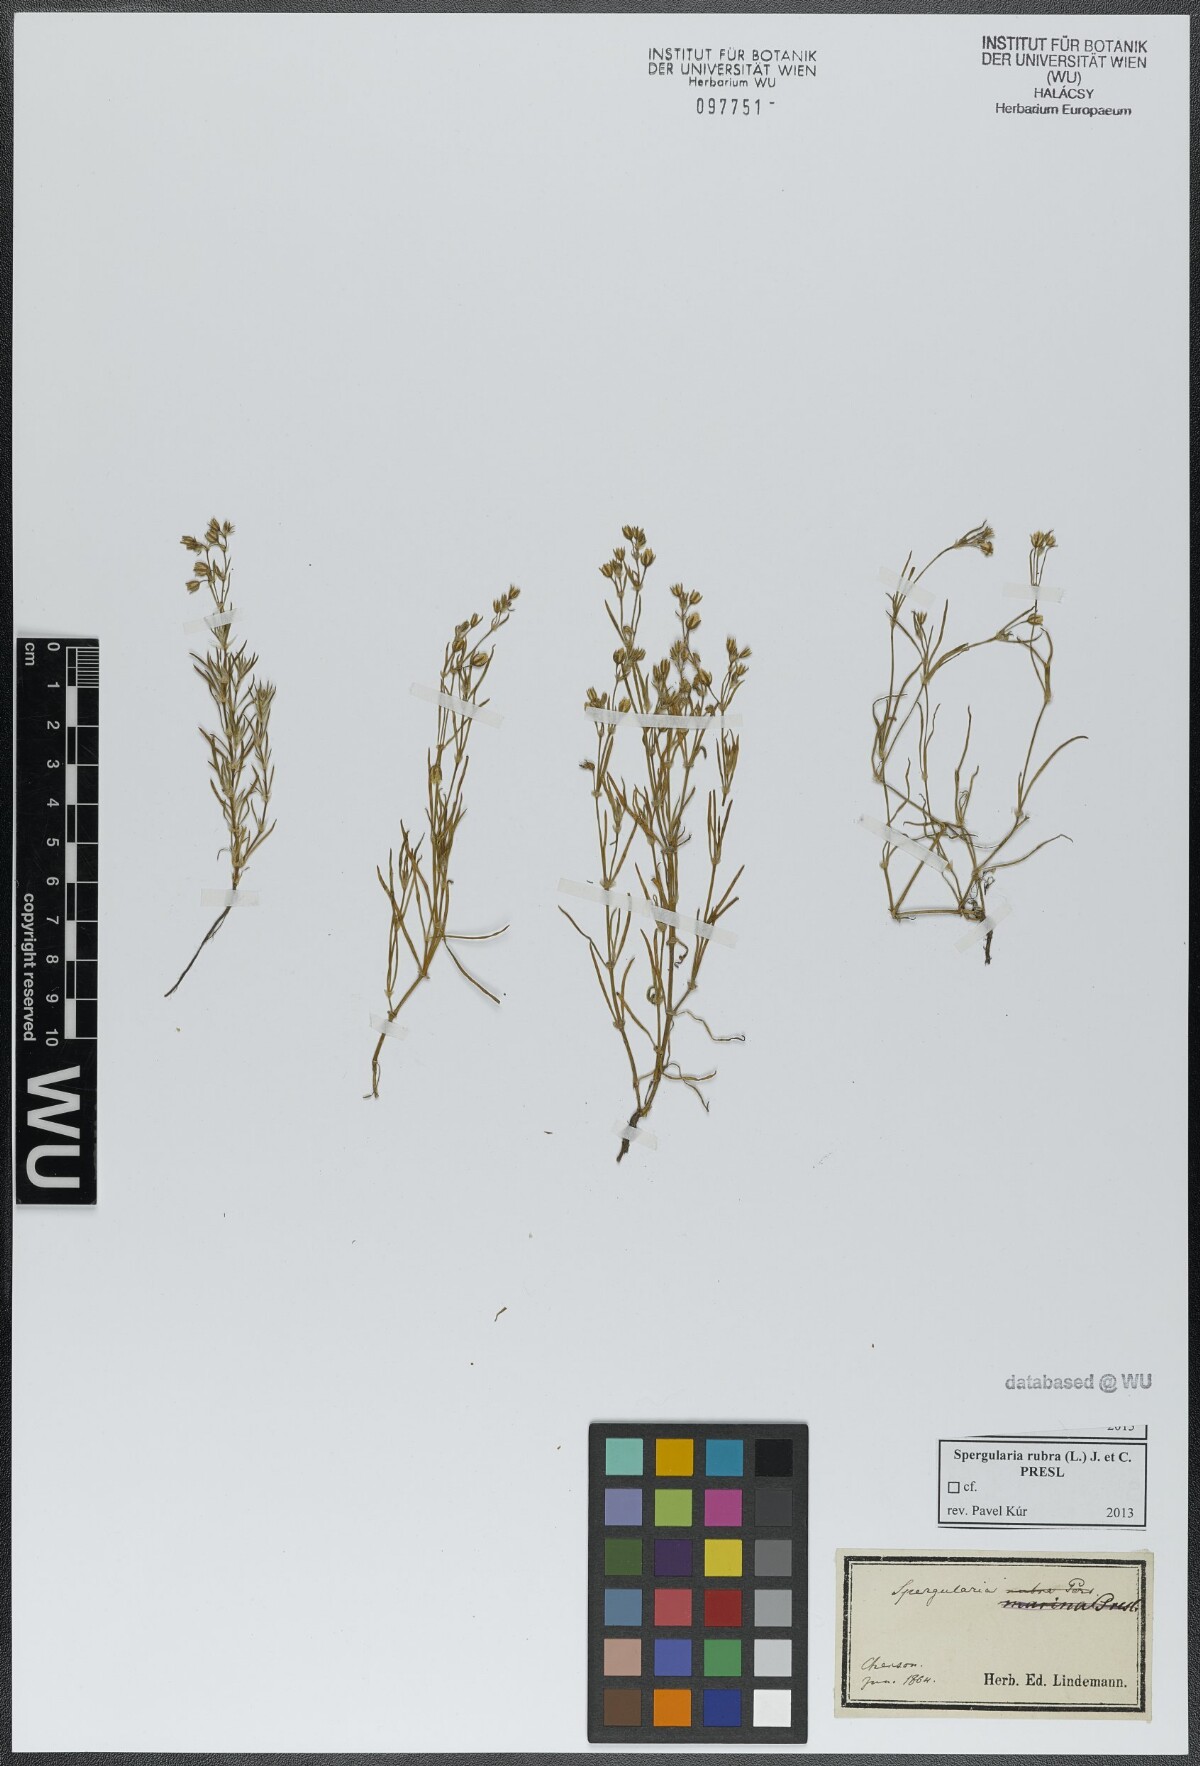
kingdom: Plantae
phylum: Tracheophyta
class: Magnoliopsida
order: Caryophyllales
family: Caryophyllaceae
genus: Spergularia
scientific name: Spergularia rubra
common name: Red sand-spurrey
